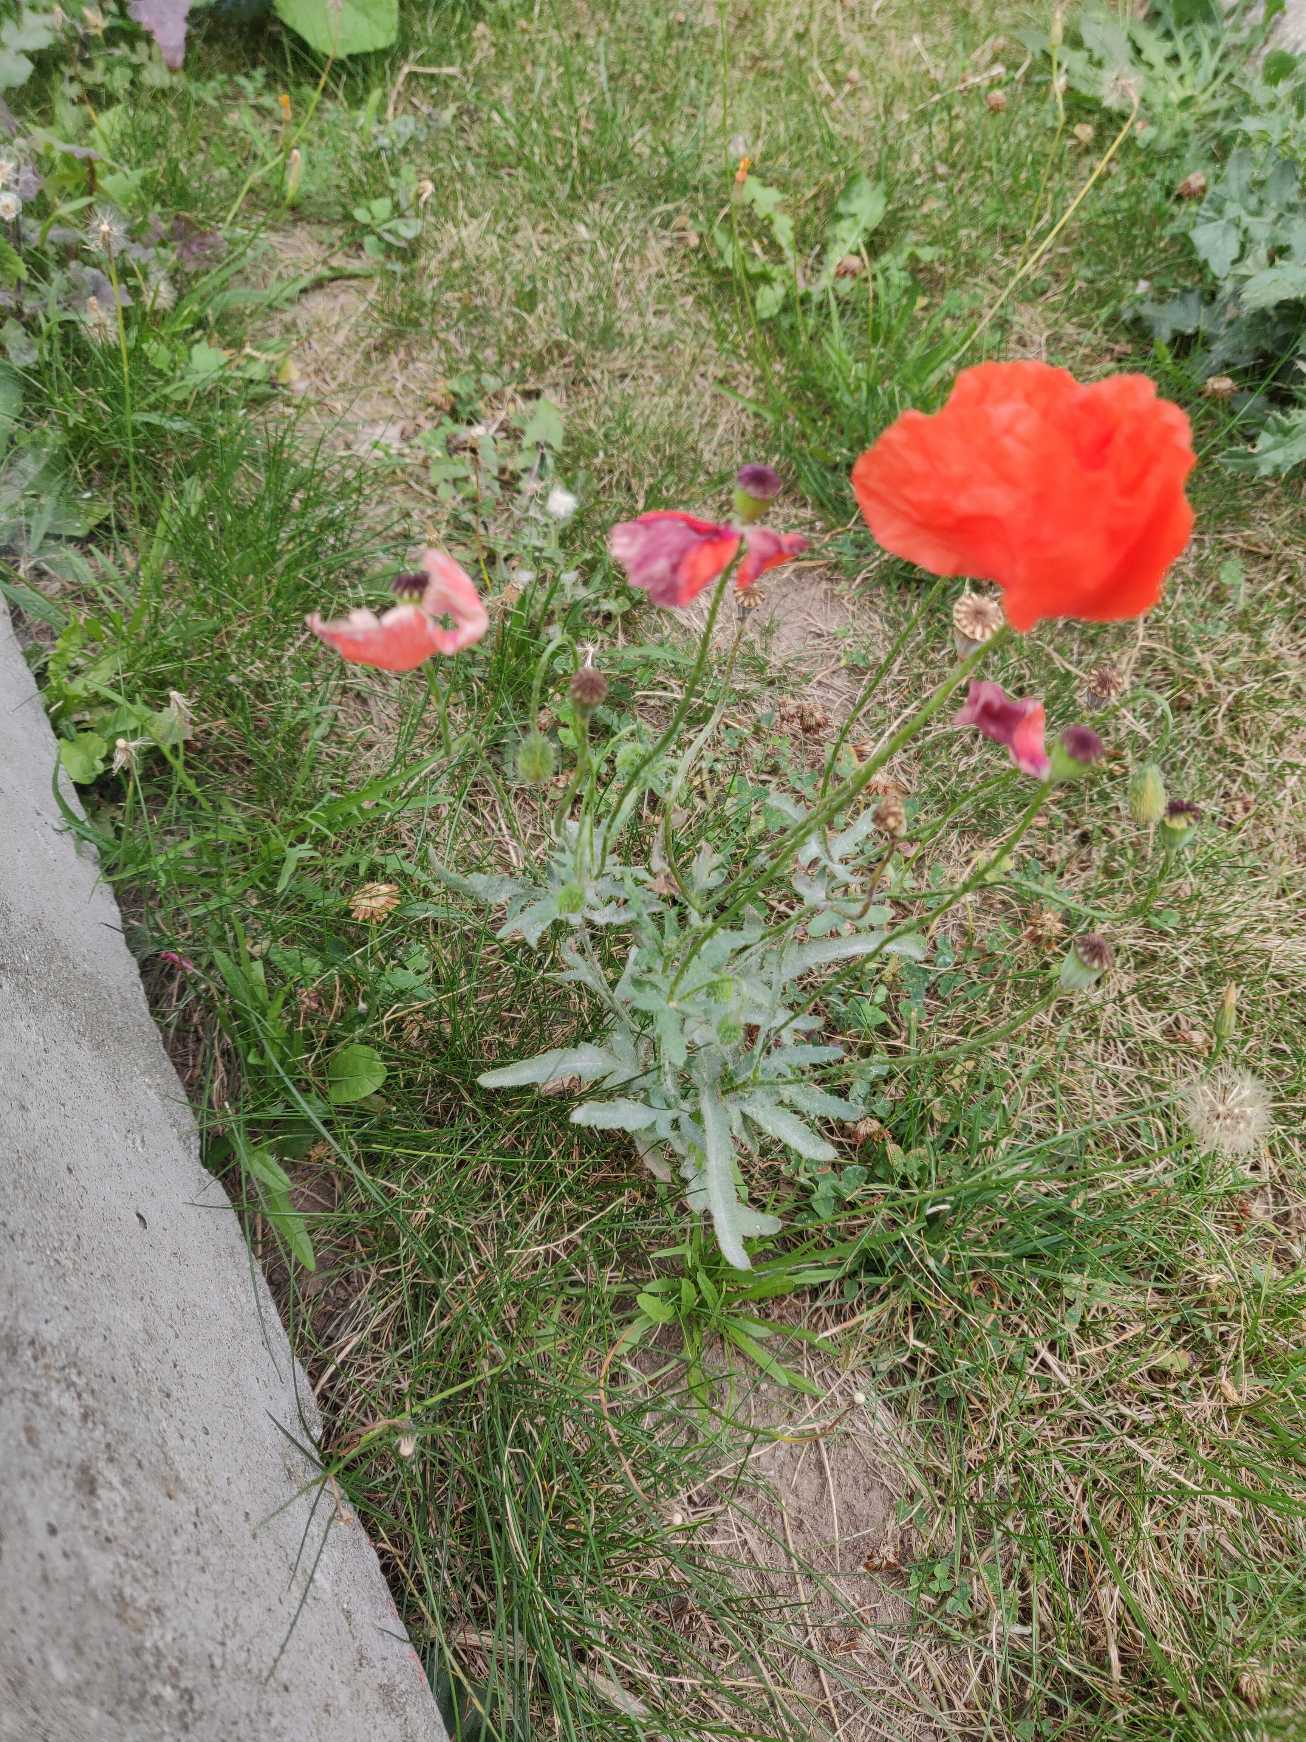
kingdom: Plantae
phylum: Tracheophyta
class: Magnoliopsida
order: Ranunculales
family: Papaveraceae
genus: Papaver
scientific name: Papaver rhoeas
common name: Korn-valmue
